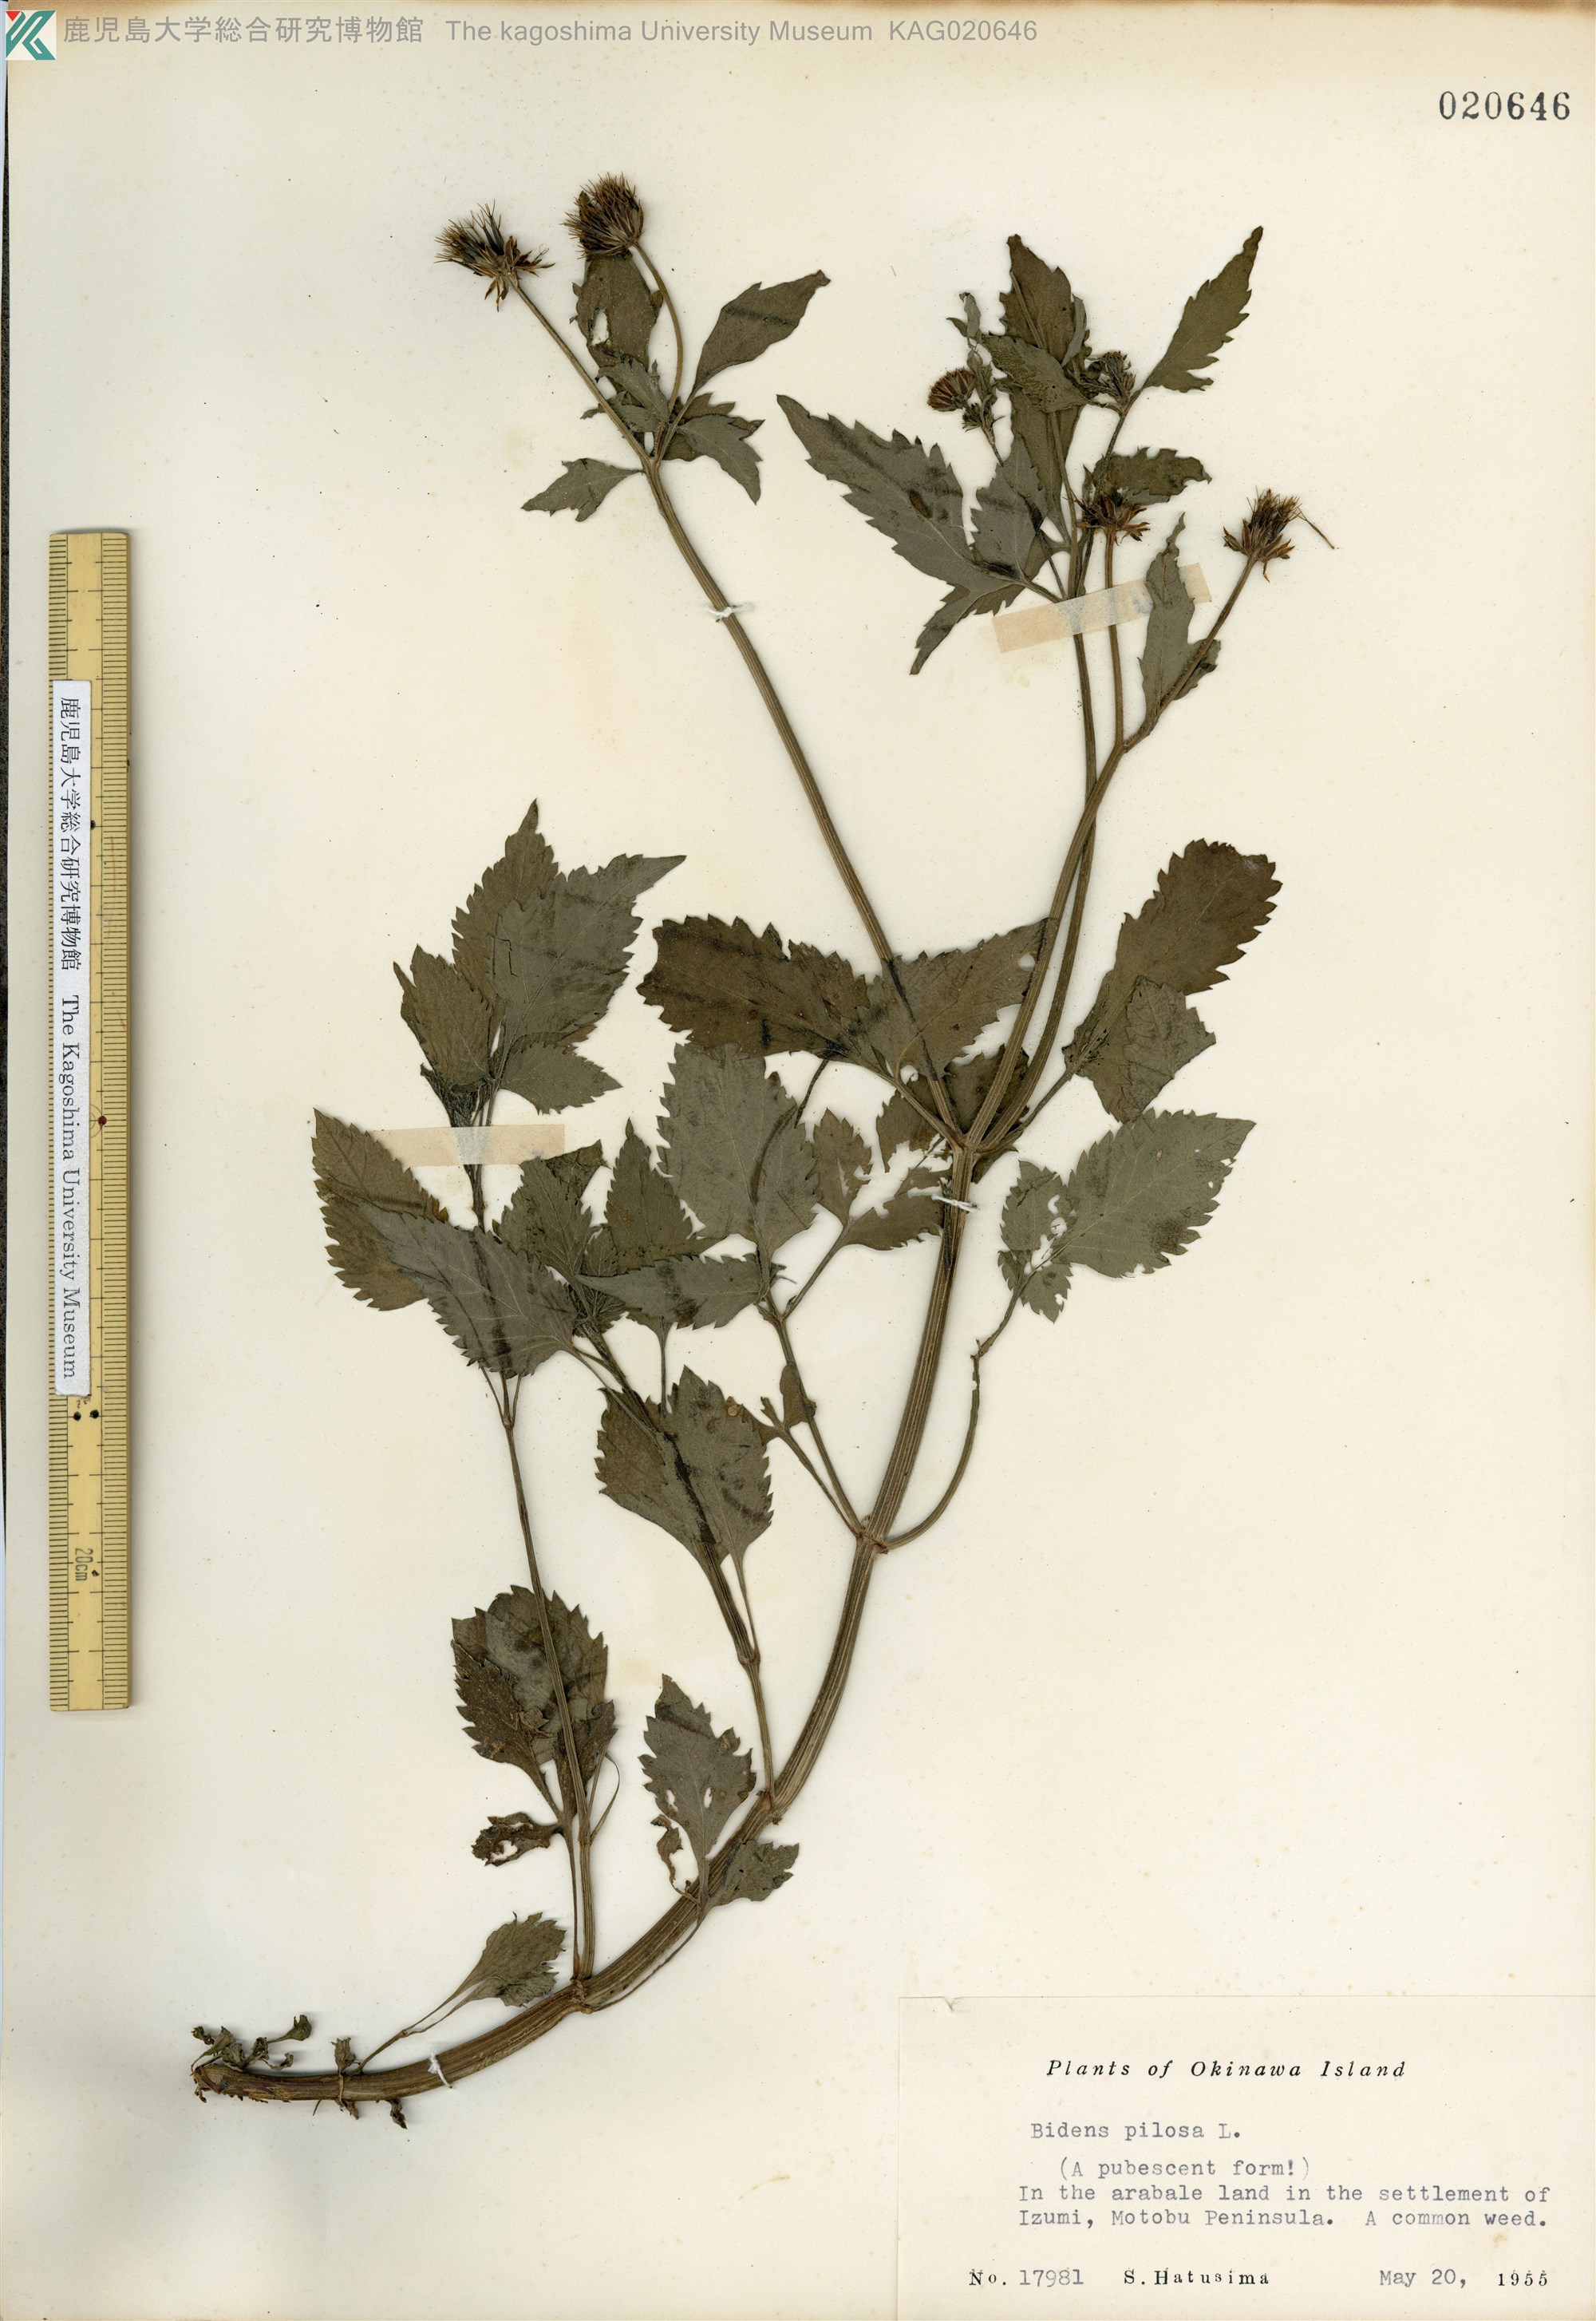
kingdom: Plantae
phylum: Tracheophyta
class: Magnoliopsida
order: Asterales
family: Asteraceae
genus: Bidens
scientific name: Bidens pilosa
